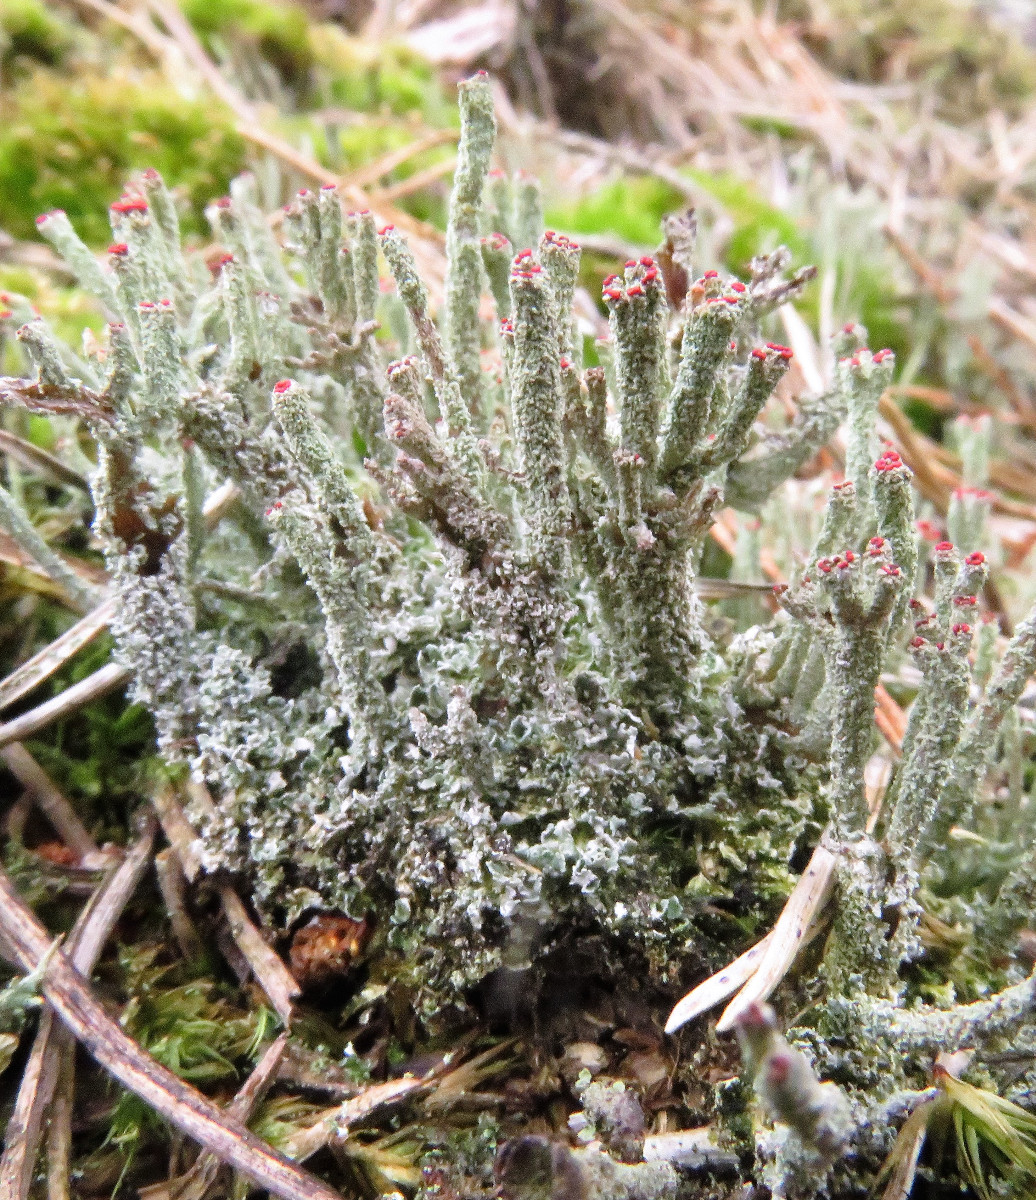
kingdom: Fungi
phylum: Ascomycota
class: Lecanoromycetes
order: Lecanorales
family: Cladoniaceae
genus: Cladonia
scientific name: Cladonia polydactyla
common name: vifte-bægerlav
